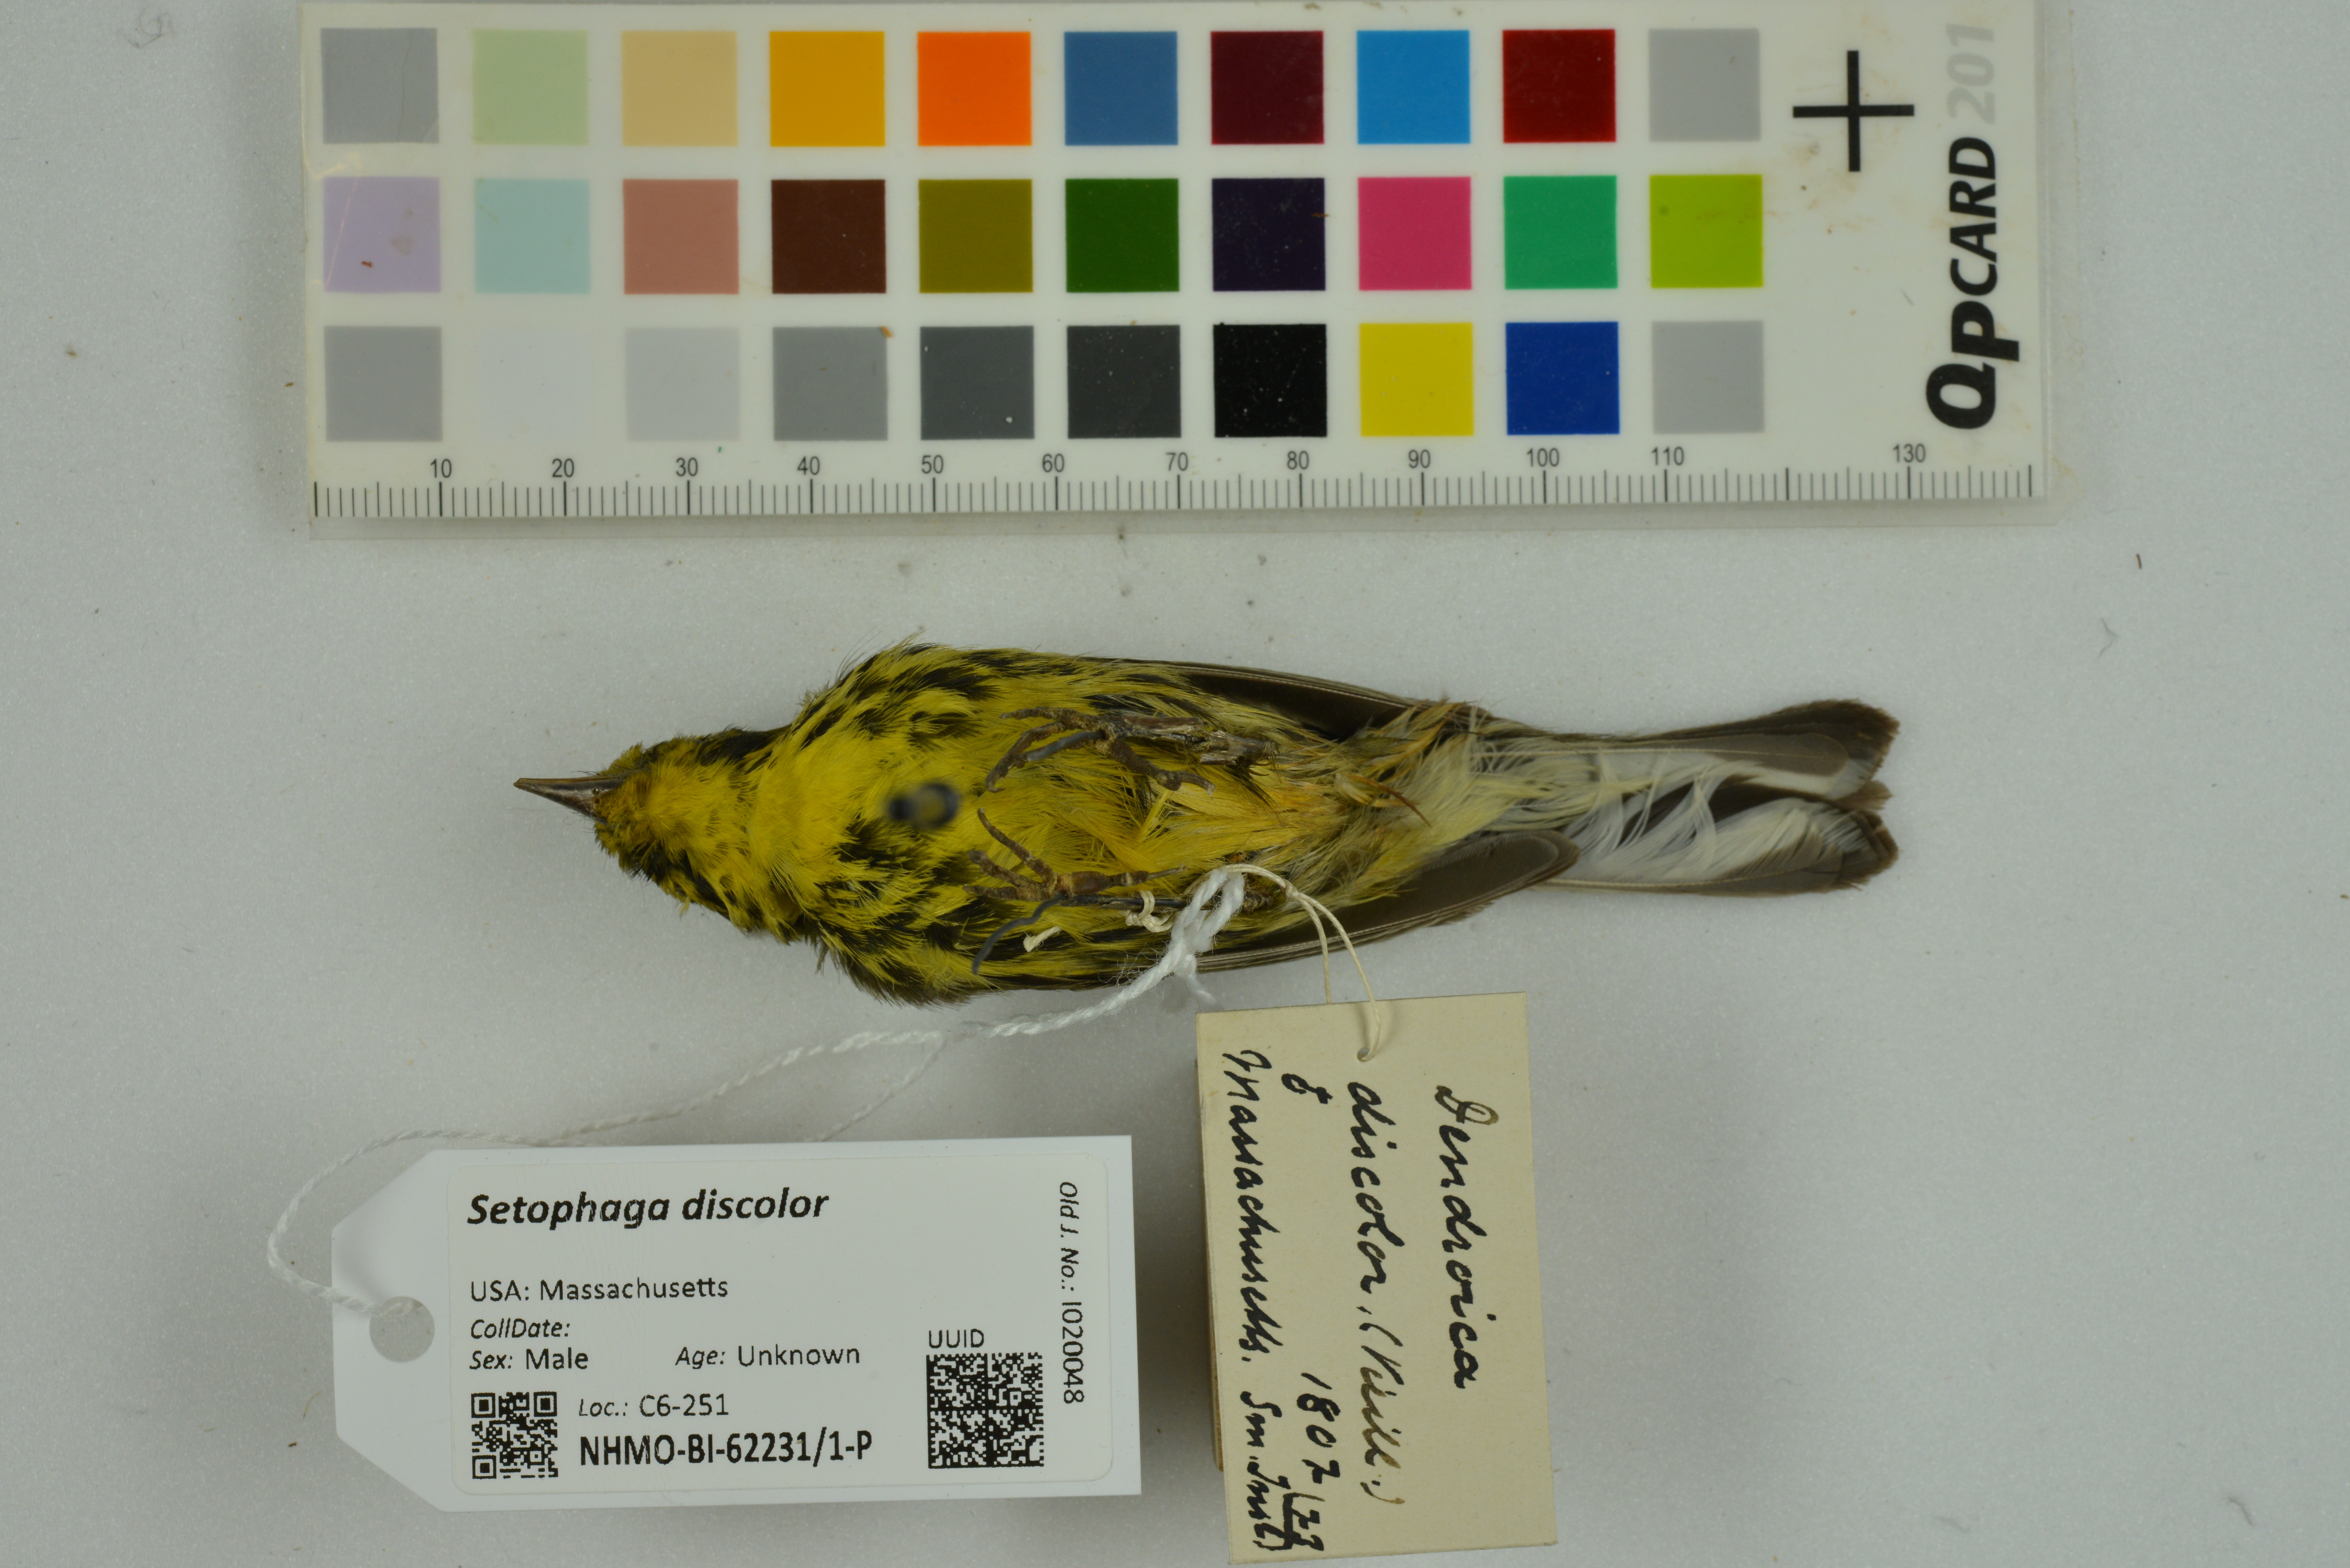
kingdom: Animalia
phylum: Chordata
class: Aves
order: Passeriformes
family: Parulidae
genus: Setophaga
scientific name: Setophaga discolor
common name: Prairie warbler
